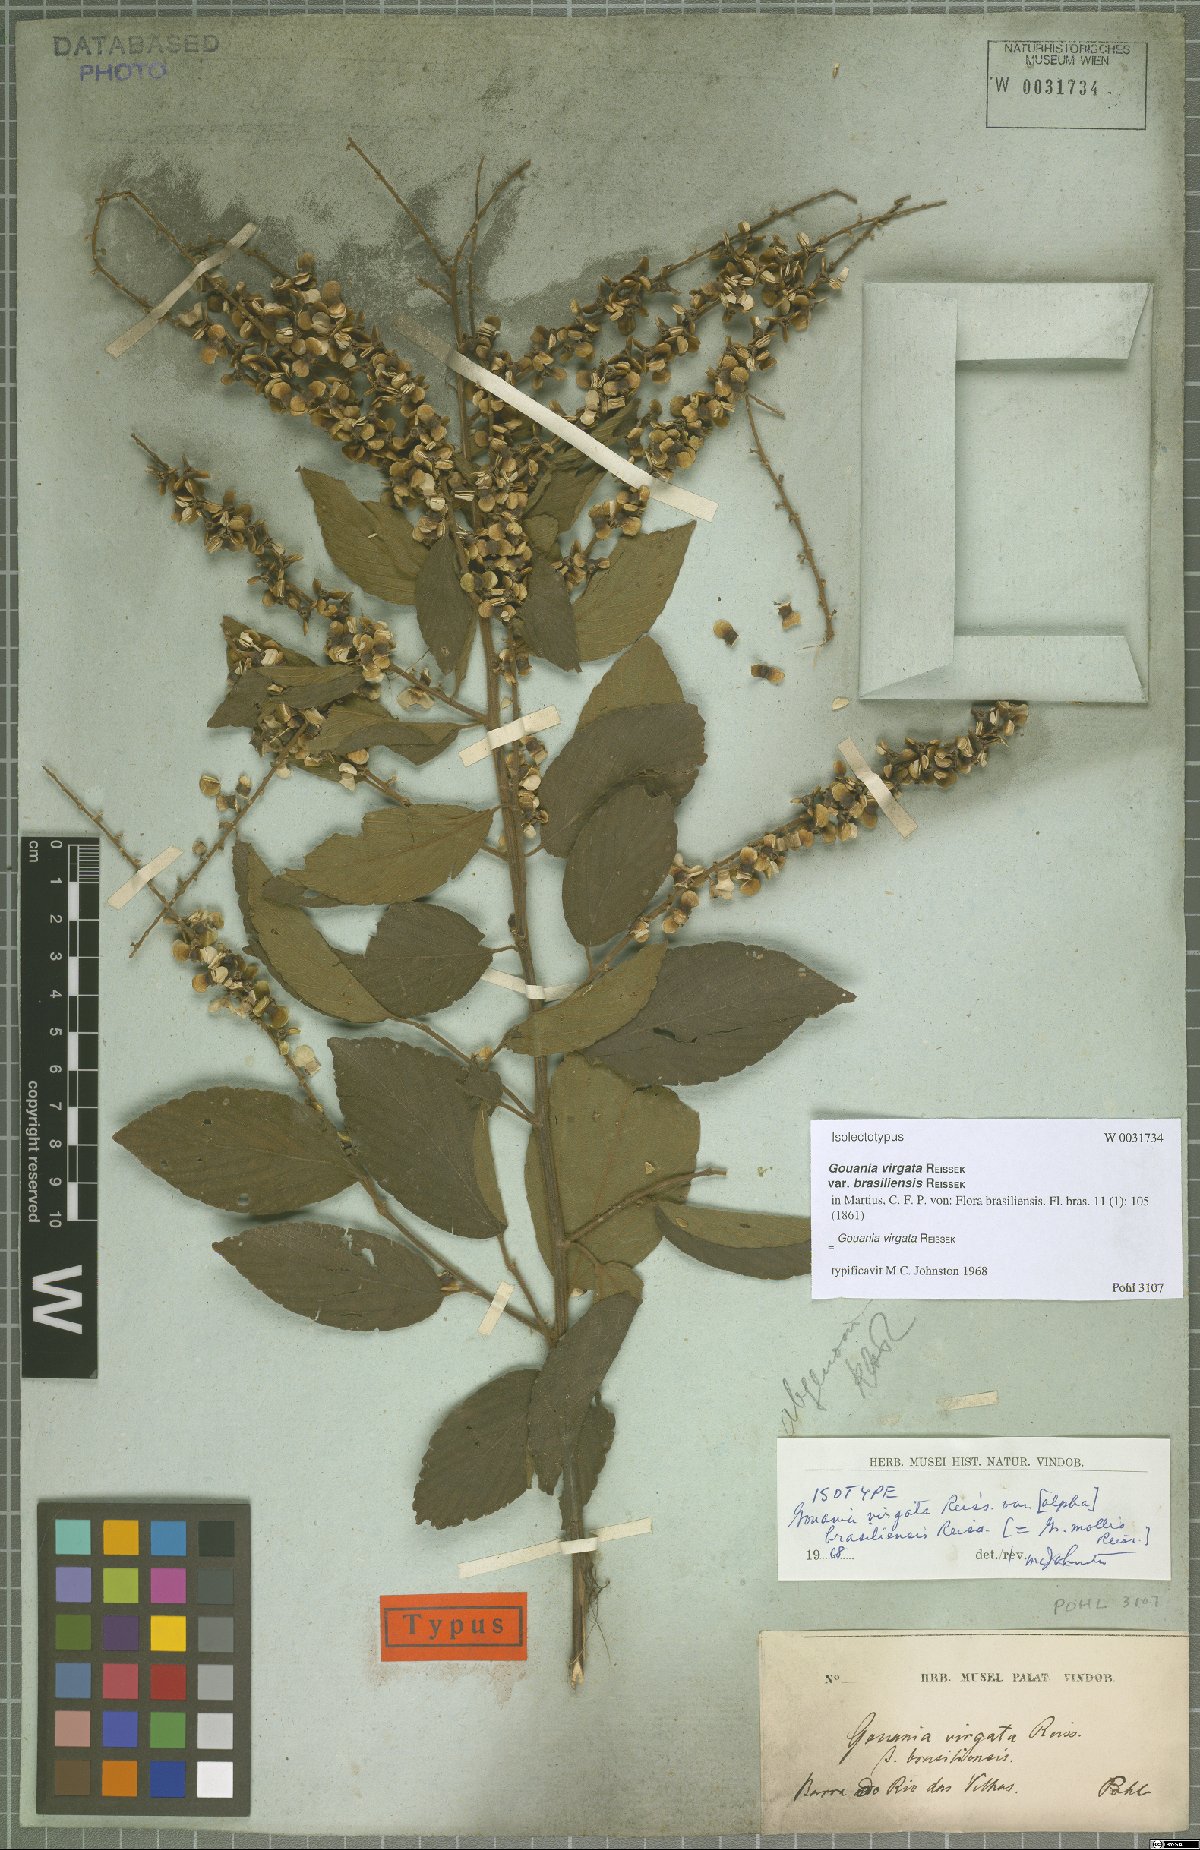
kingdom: Plantae
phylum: Tracheophyta
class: Magnoliopsida
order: Rosales
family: Rhamnaceae
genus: Gouania
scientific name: Gouania lupuloides
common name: Chewstick
